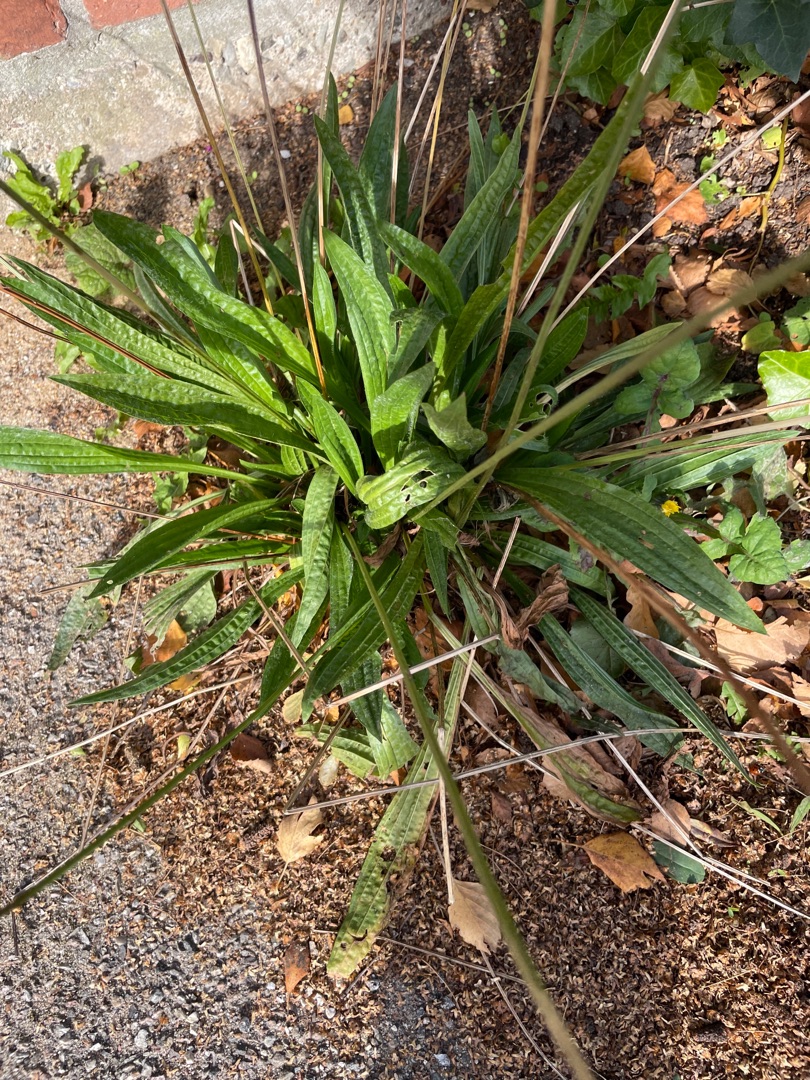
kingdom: Plantae
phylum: Tracheophyta
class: Magnoliopsida
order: Lamiales
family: Plantaginaceae
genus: Plantago
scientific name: Plantago lanceolata
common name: Lancet-vejbred
